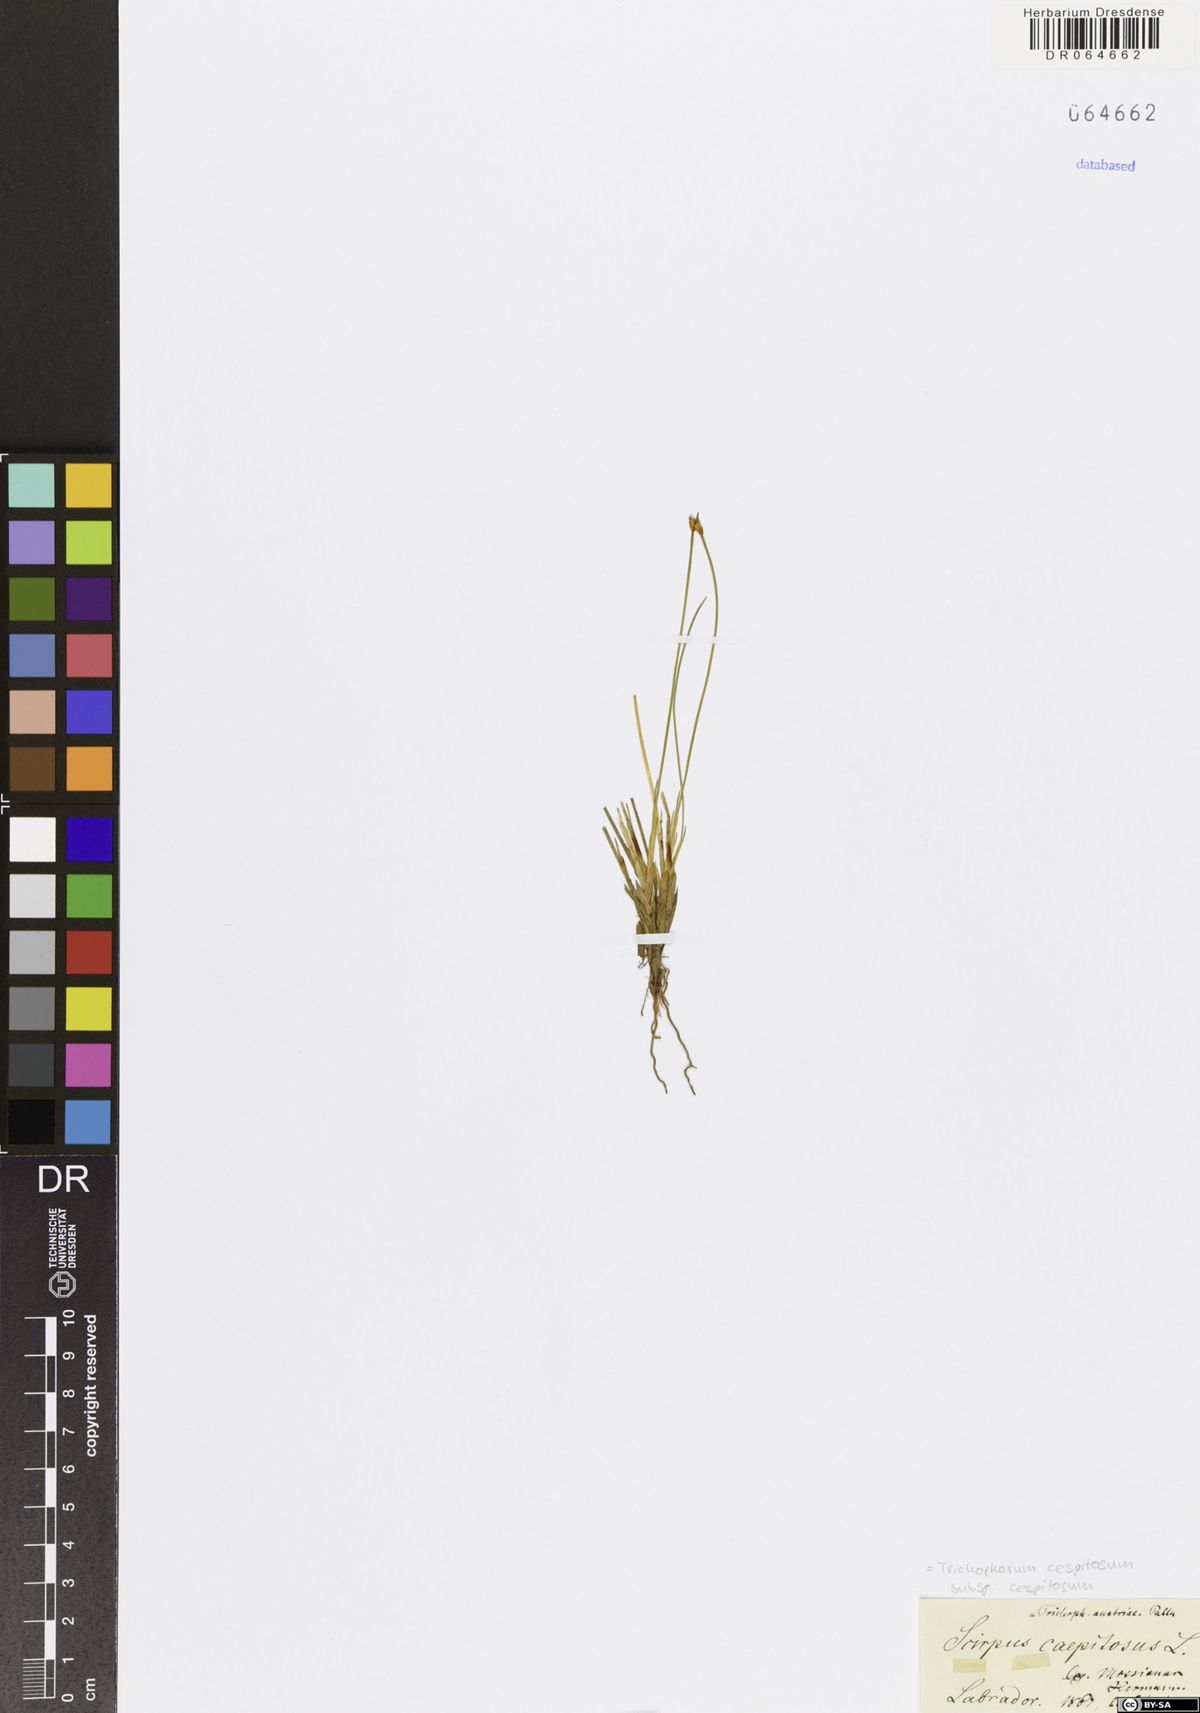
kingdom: Plantae
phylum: Tracheophyta
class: Liliopsida
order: Poales
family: Cyperaceae
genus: Trichophorum
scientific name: Trichophorum cespitosum
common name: Cespitose bulrush
